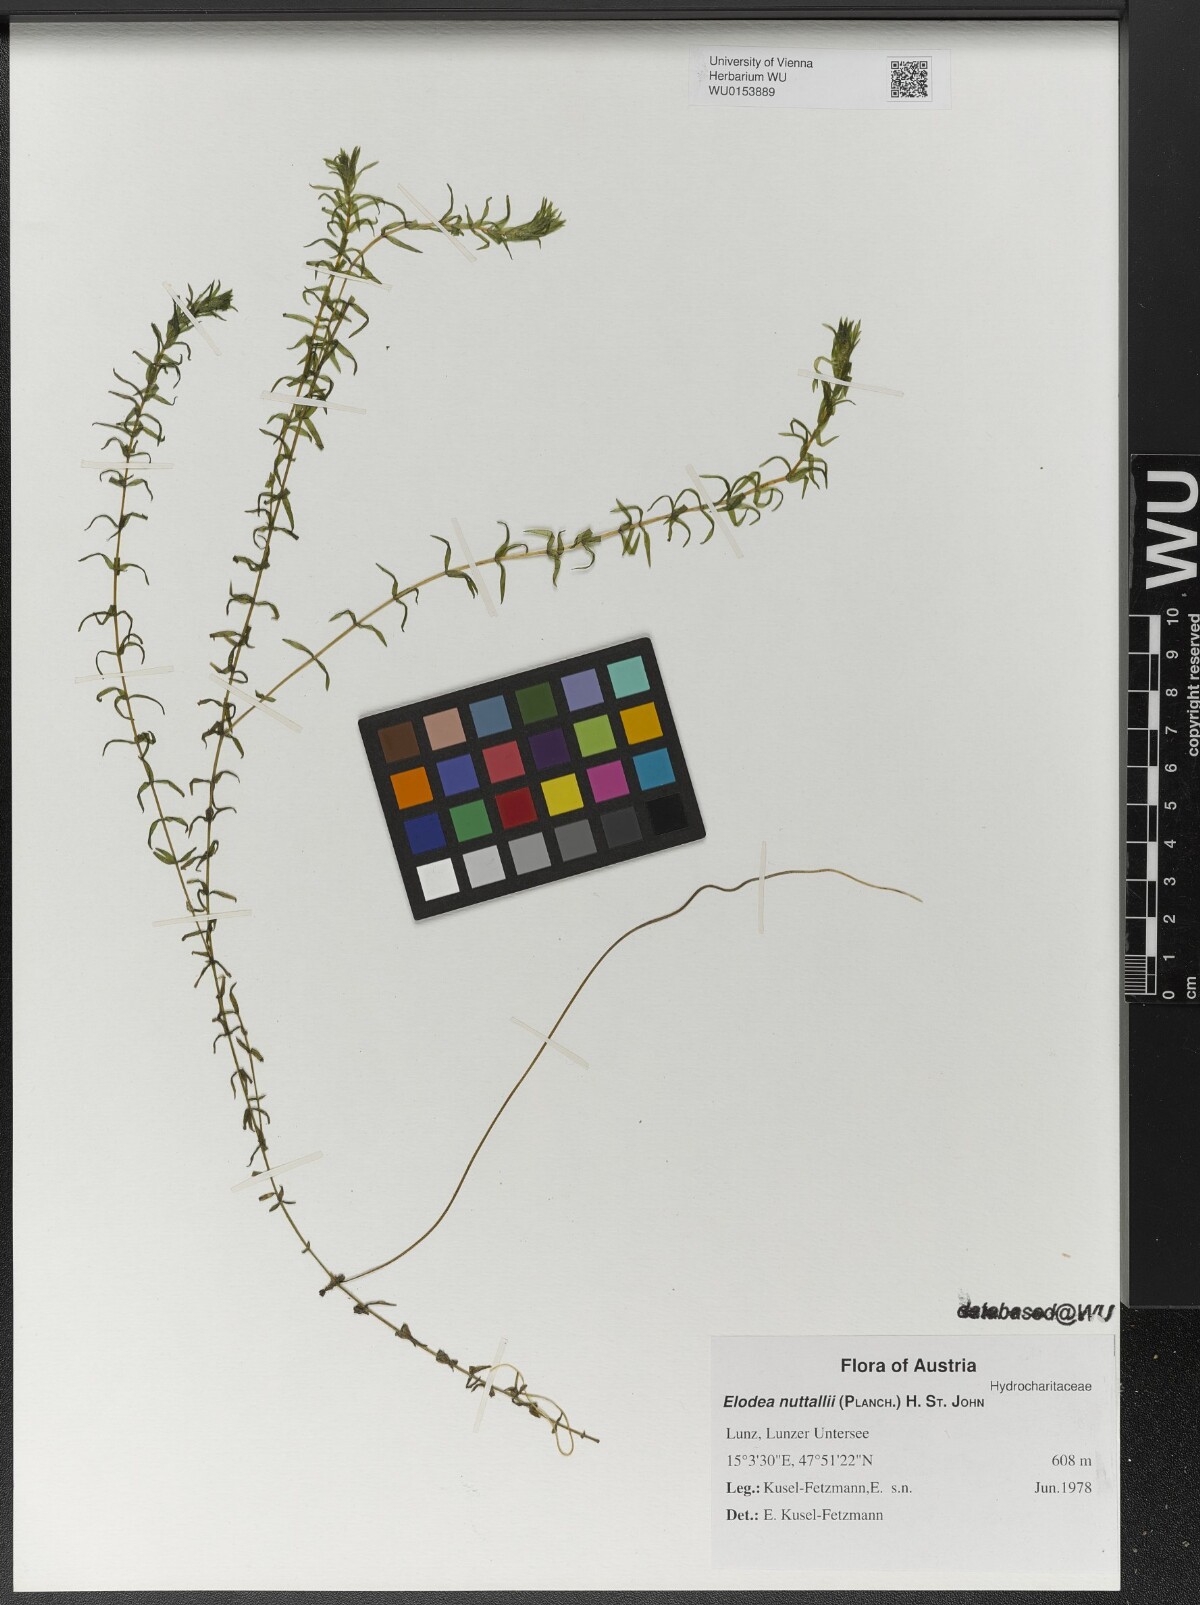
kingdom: Plantae
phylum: Tracheophyta
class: Liliopsida
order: Alismatales
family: Hydrocharitaceae
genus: Elodea
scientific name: Elodea nuttallii
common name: Nuttall's waterweed
